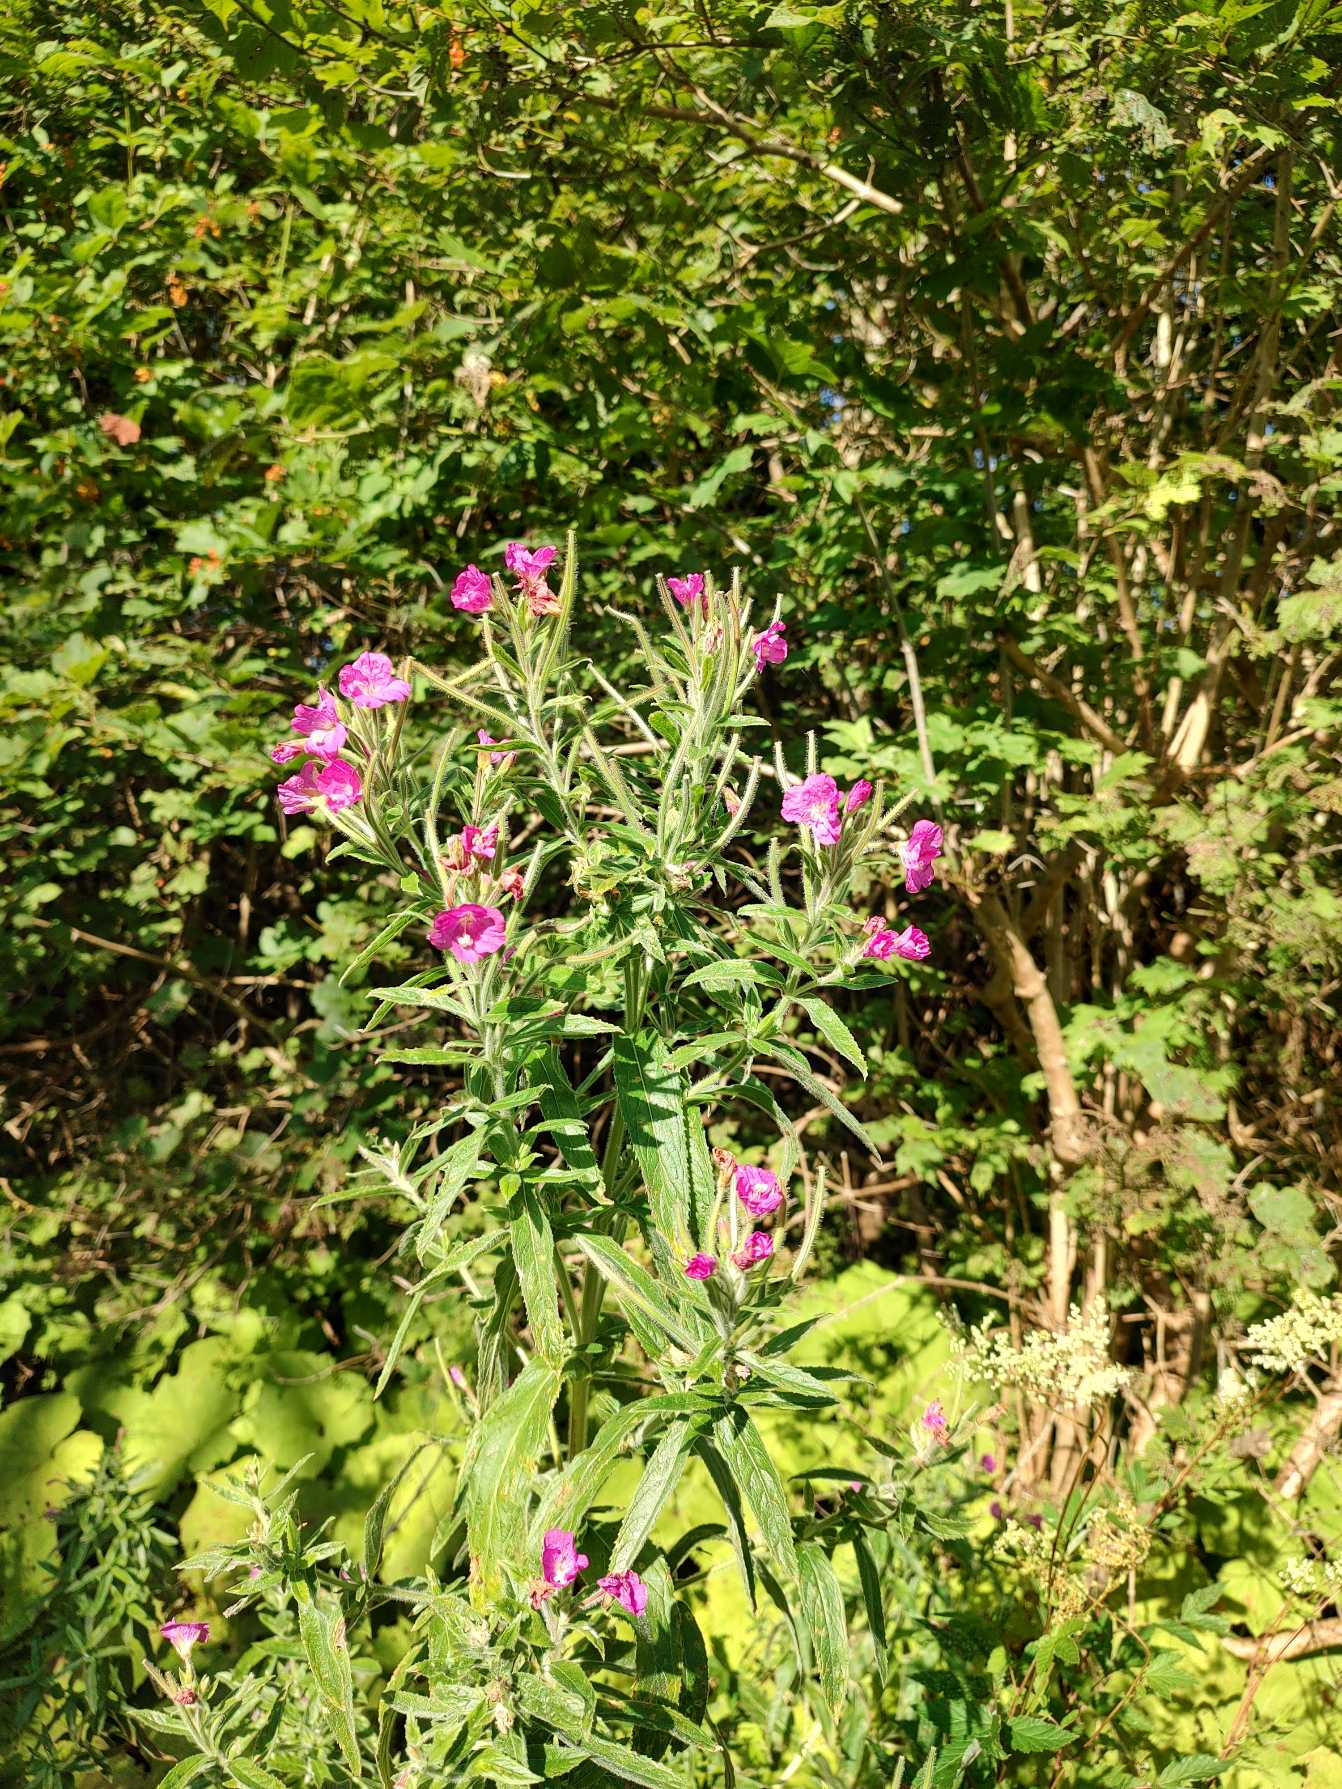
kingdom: Plantae
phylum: Tracheophyta
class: Magnoliopsida
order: Myrtales
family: Onagraceae
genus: Epilobium
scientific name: Epilobium hirsutum
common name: Lådden dueurt
